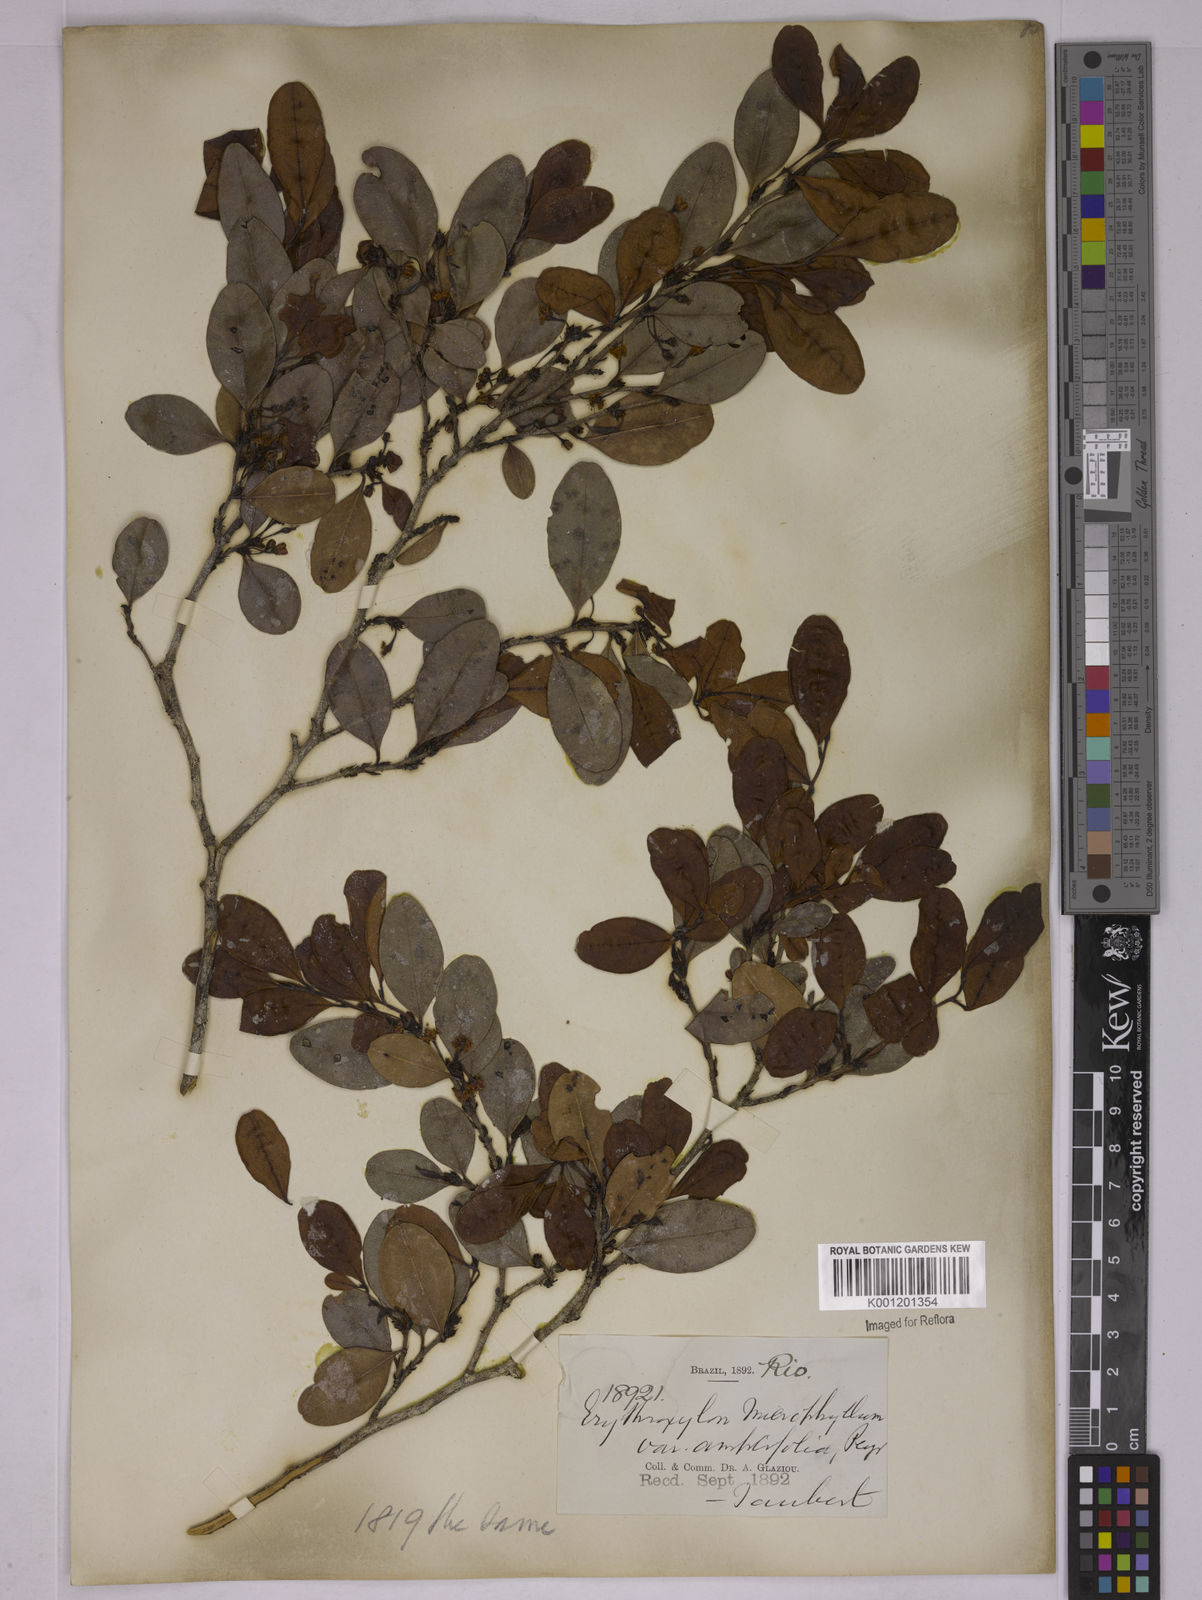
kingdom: Plantae
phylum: Tracheophyta
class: Magnoliopsida
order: Malpighiales
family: Erythroxylaceae
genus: Erythroxylum
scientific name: Erythroxylum
